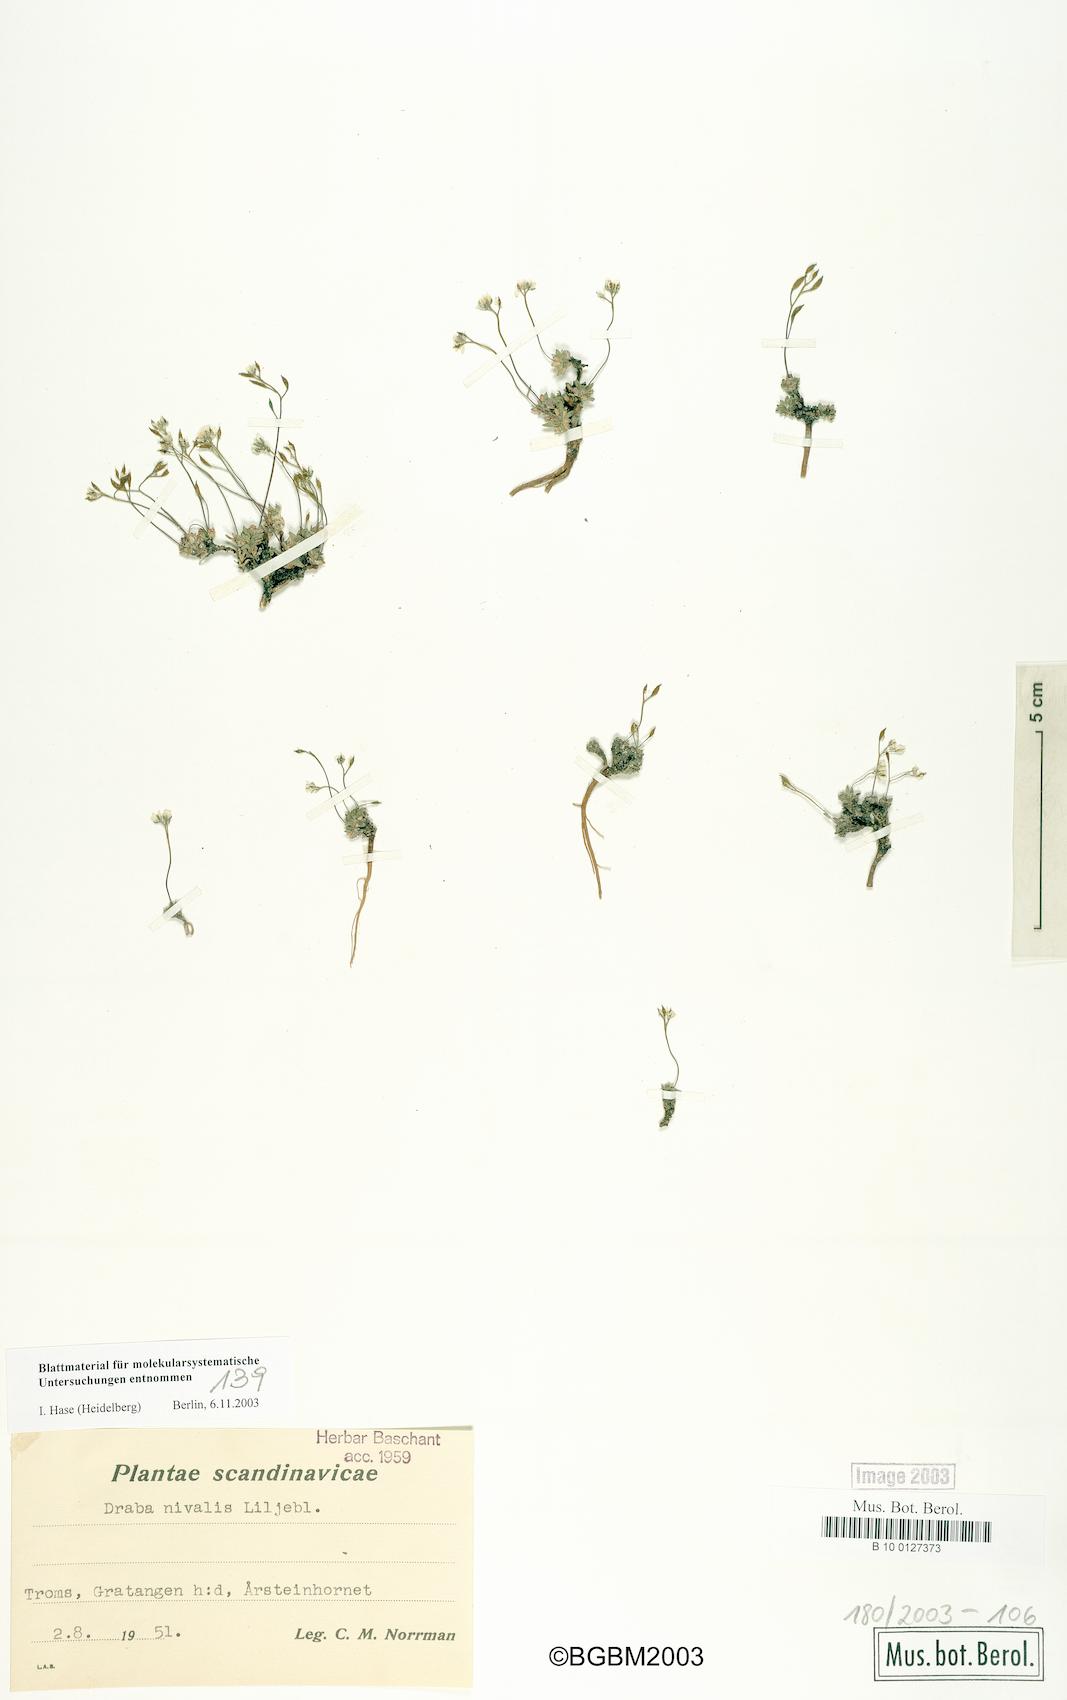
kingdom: Plantae
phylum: Tracheophyta
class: Magnoliopsida
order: Brassicales
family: Brassicaceae
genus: Draba
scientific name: Draba nivalis
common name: Snow draba
